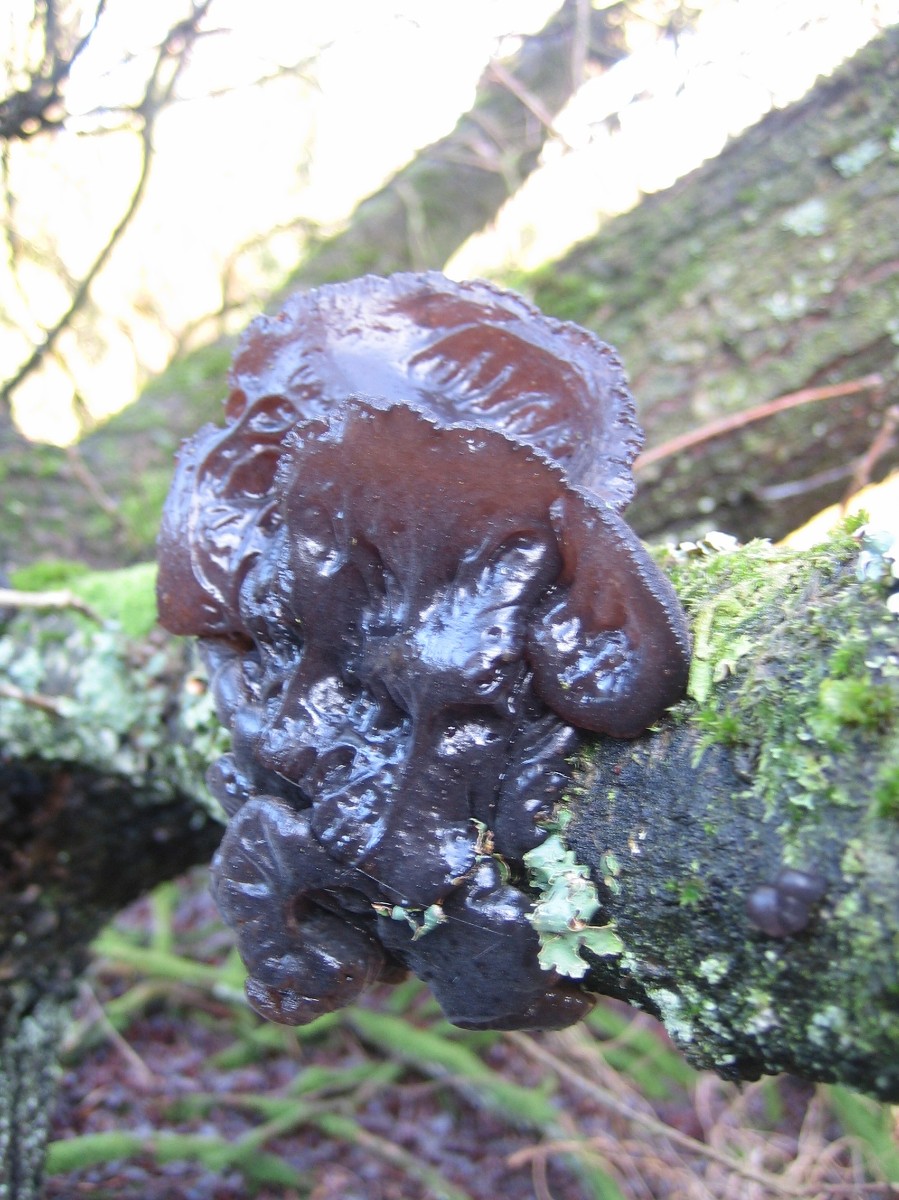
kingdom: Fungi
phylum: Basidiomycota
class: Agaricomycetes
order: Auriculariales
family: Auriculariaceae
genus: Exidia
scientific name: Exidia glandulosa
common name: ege-bævretop
